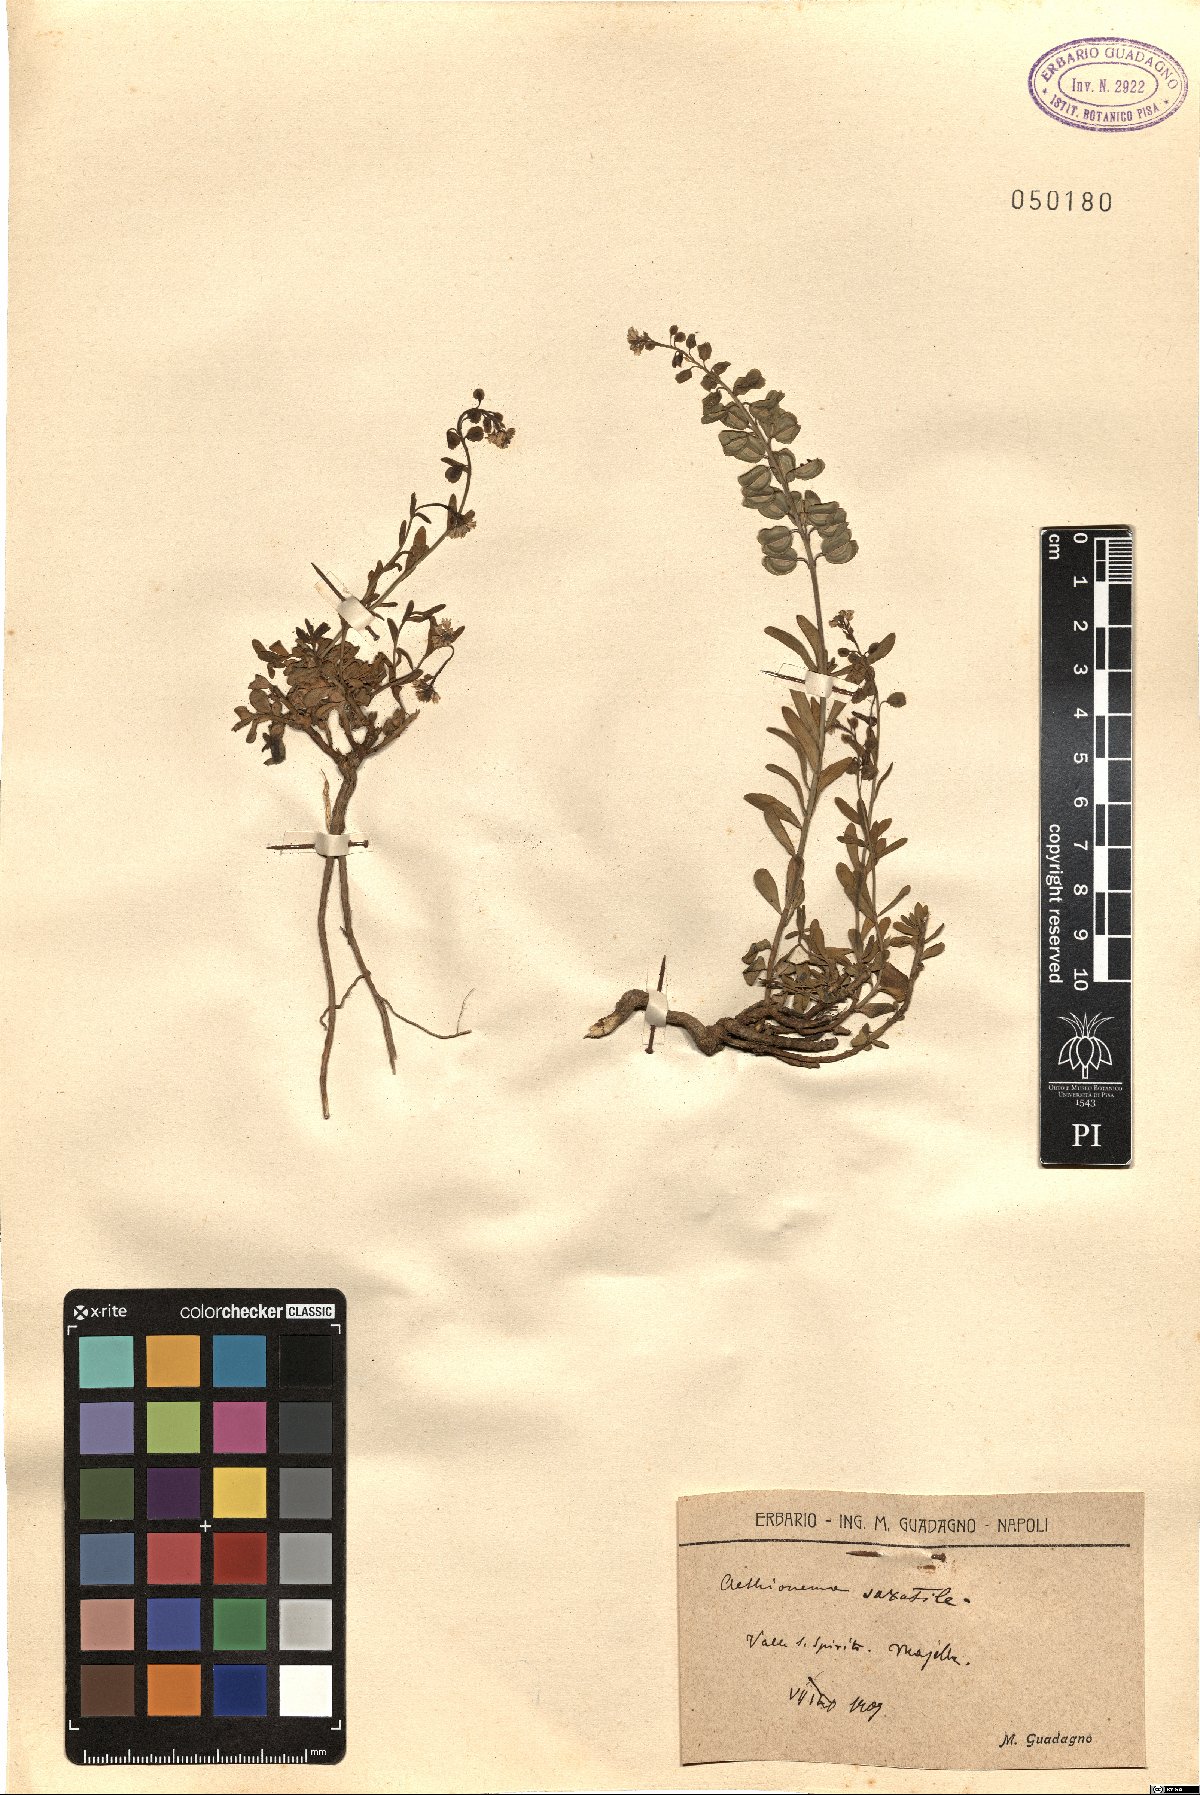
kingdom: Plantae
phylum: Tracheophyta
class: Magnoliopsida
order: Brassicales
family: Brassicaceae
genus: Aethionema
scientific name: Aethionema saxatile
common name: Burnt candytuft
